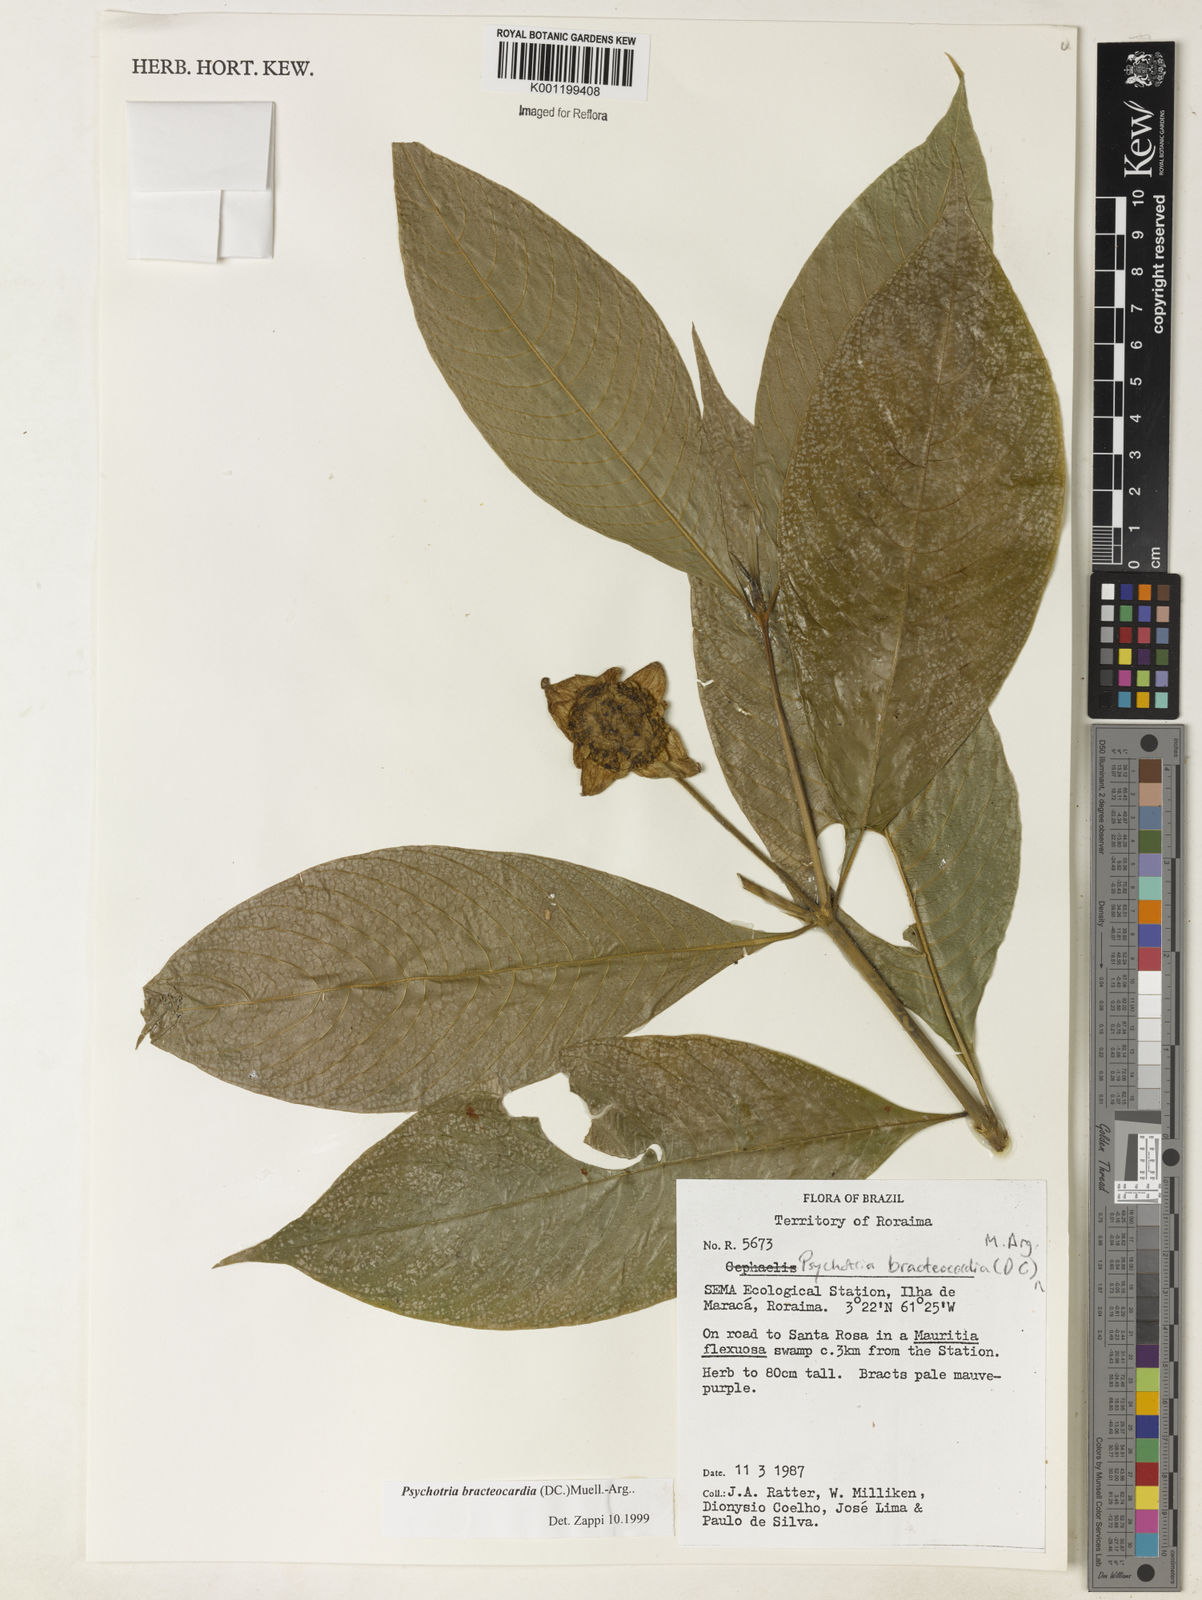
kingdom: Plantae
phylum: Tracheophyta
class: Magnoliopsida
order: Gentianales
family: Rubiaceae
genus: Psychotria
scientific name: Psychotria
